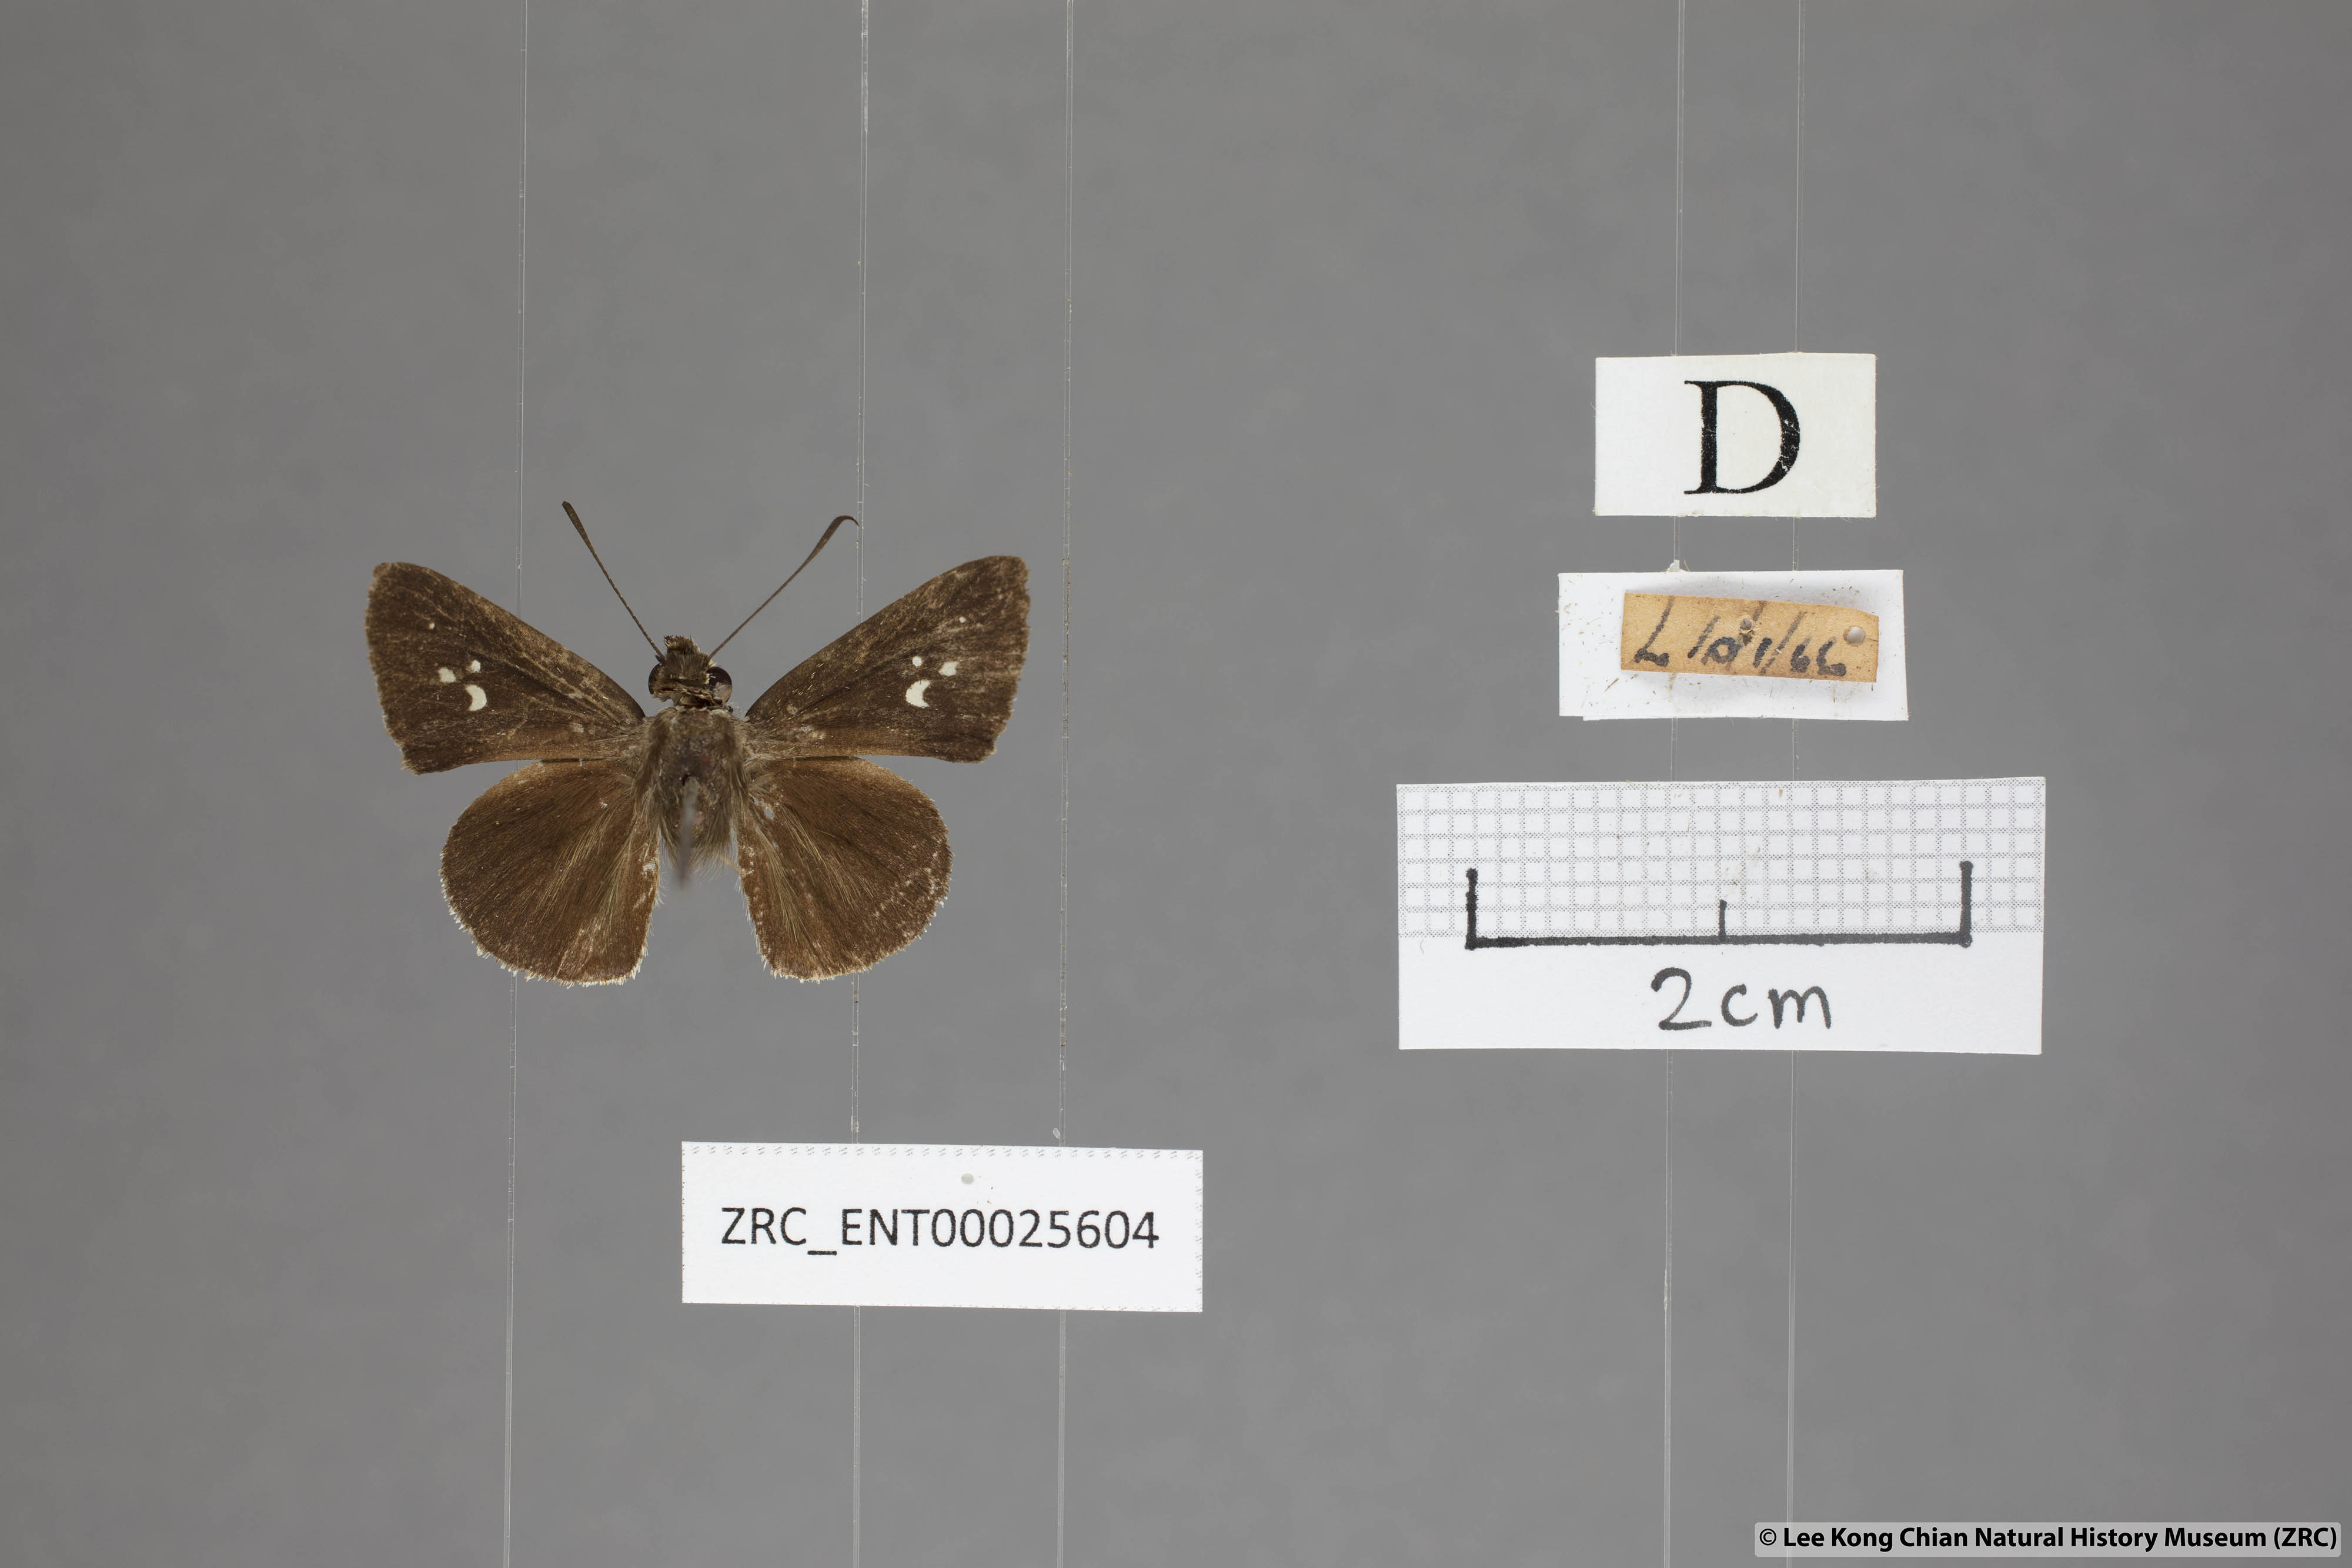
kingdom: Animalia
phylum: Arthropoda
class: Insecta
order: Lepidoptera
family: Hesperiidae
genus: Suastus
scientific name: Suastus minuta
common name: Small palm bob
